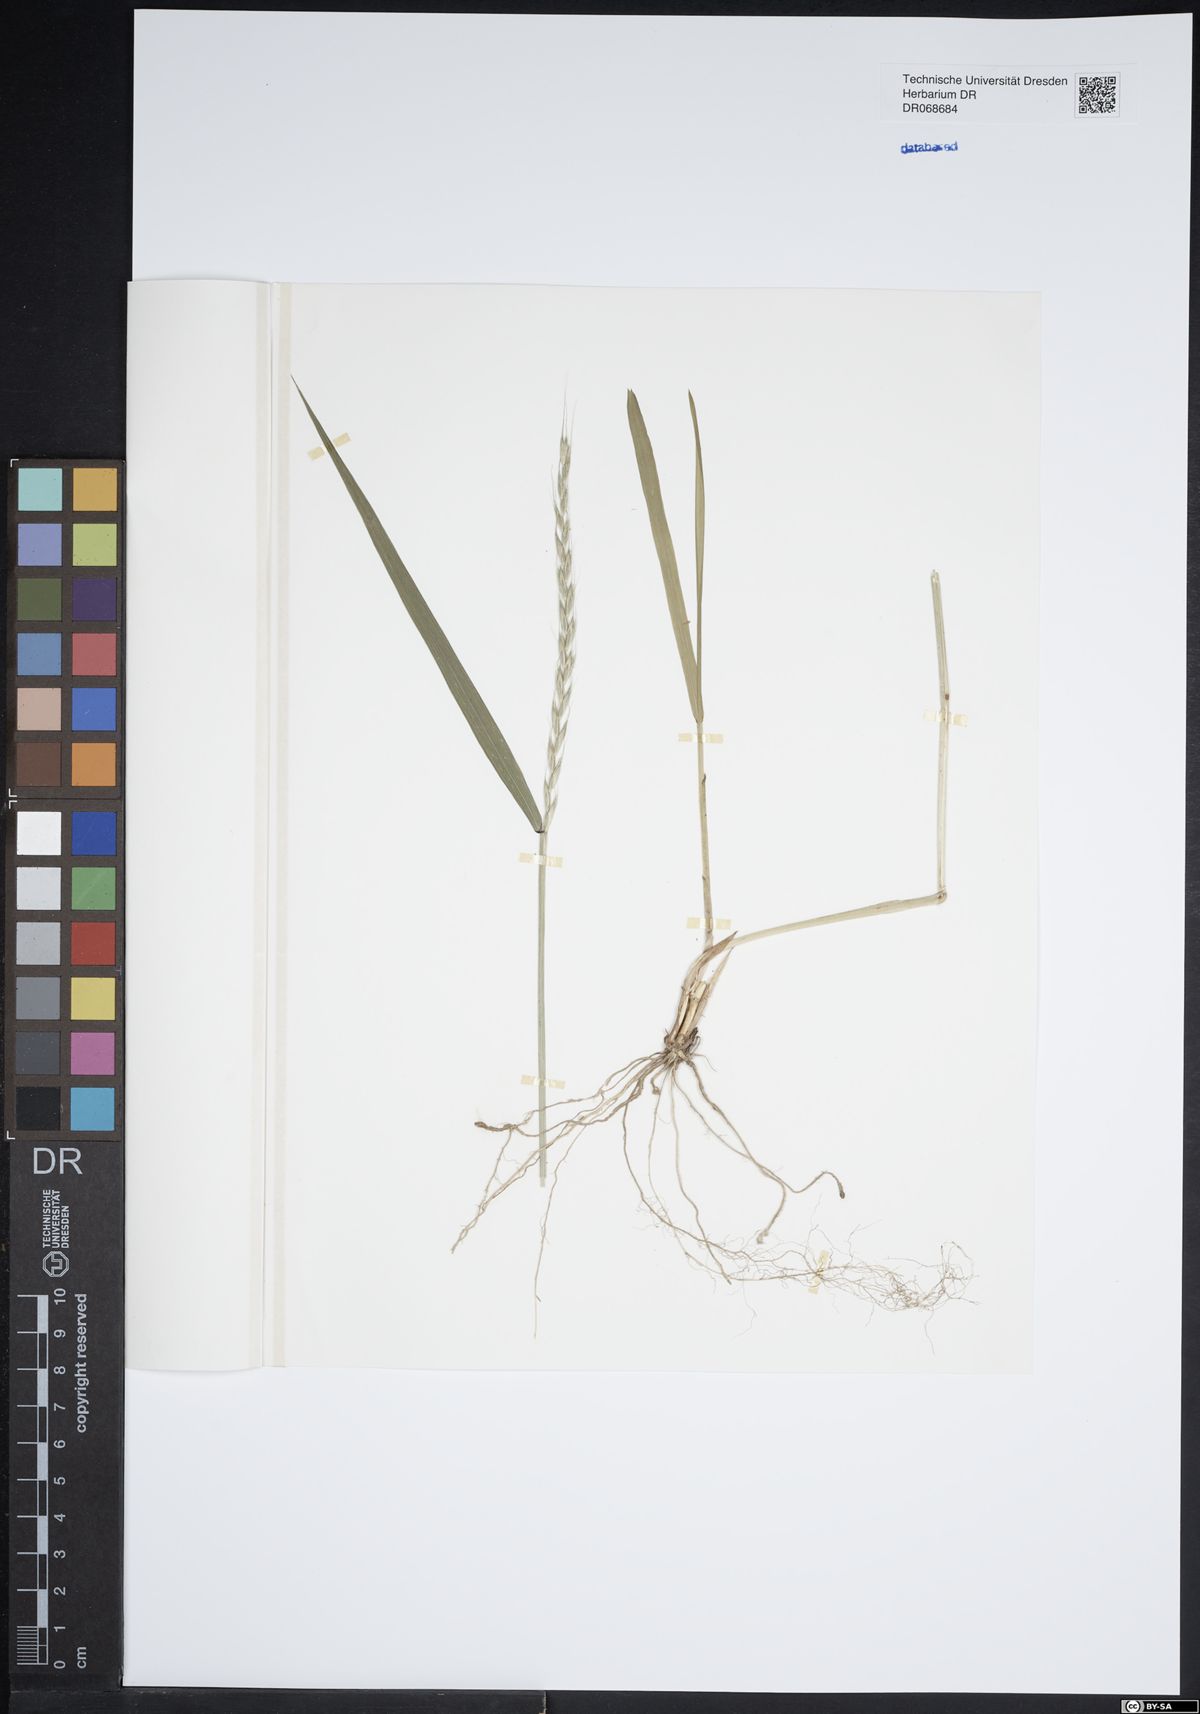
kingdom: Plantae
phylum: Tracheophyta
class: Liliopsida
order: Poales
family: Poaceae
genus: Elymus
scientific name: Elymus caninus
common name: Bearded couch
